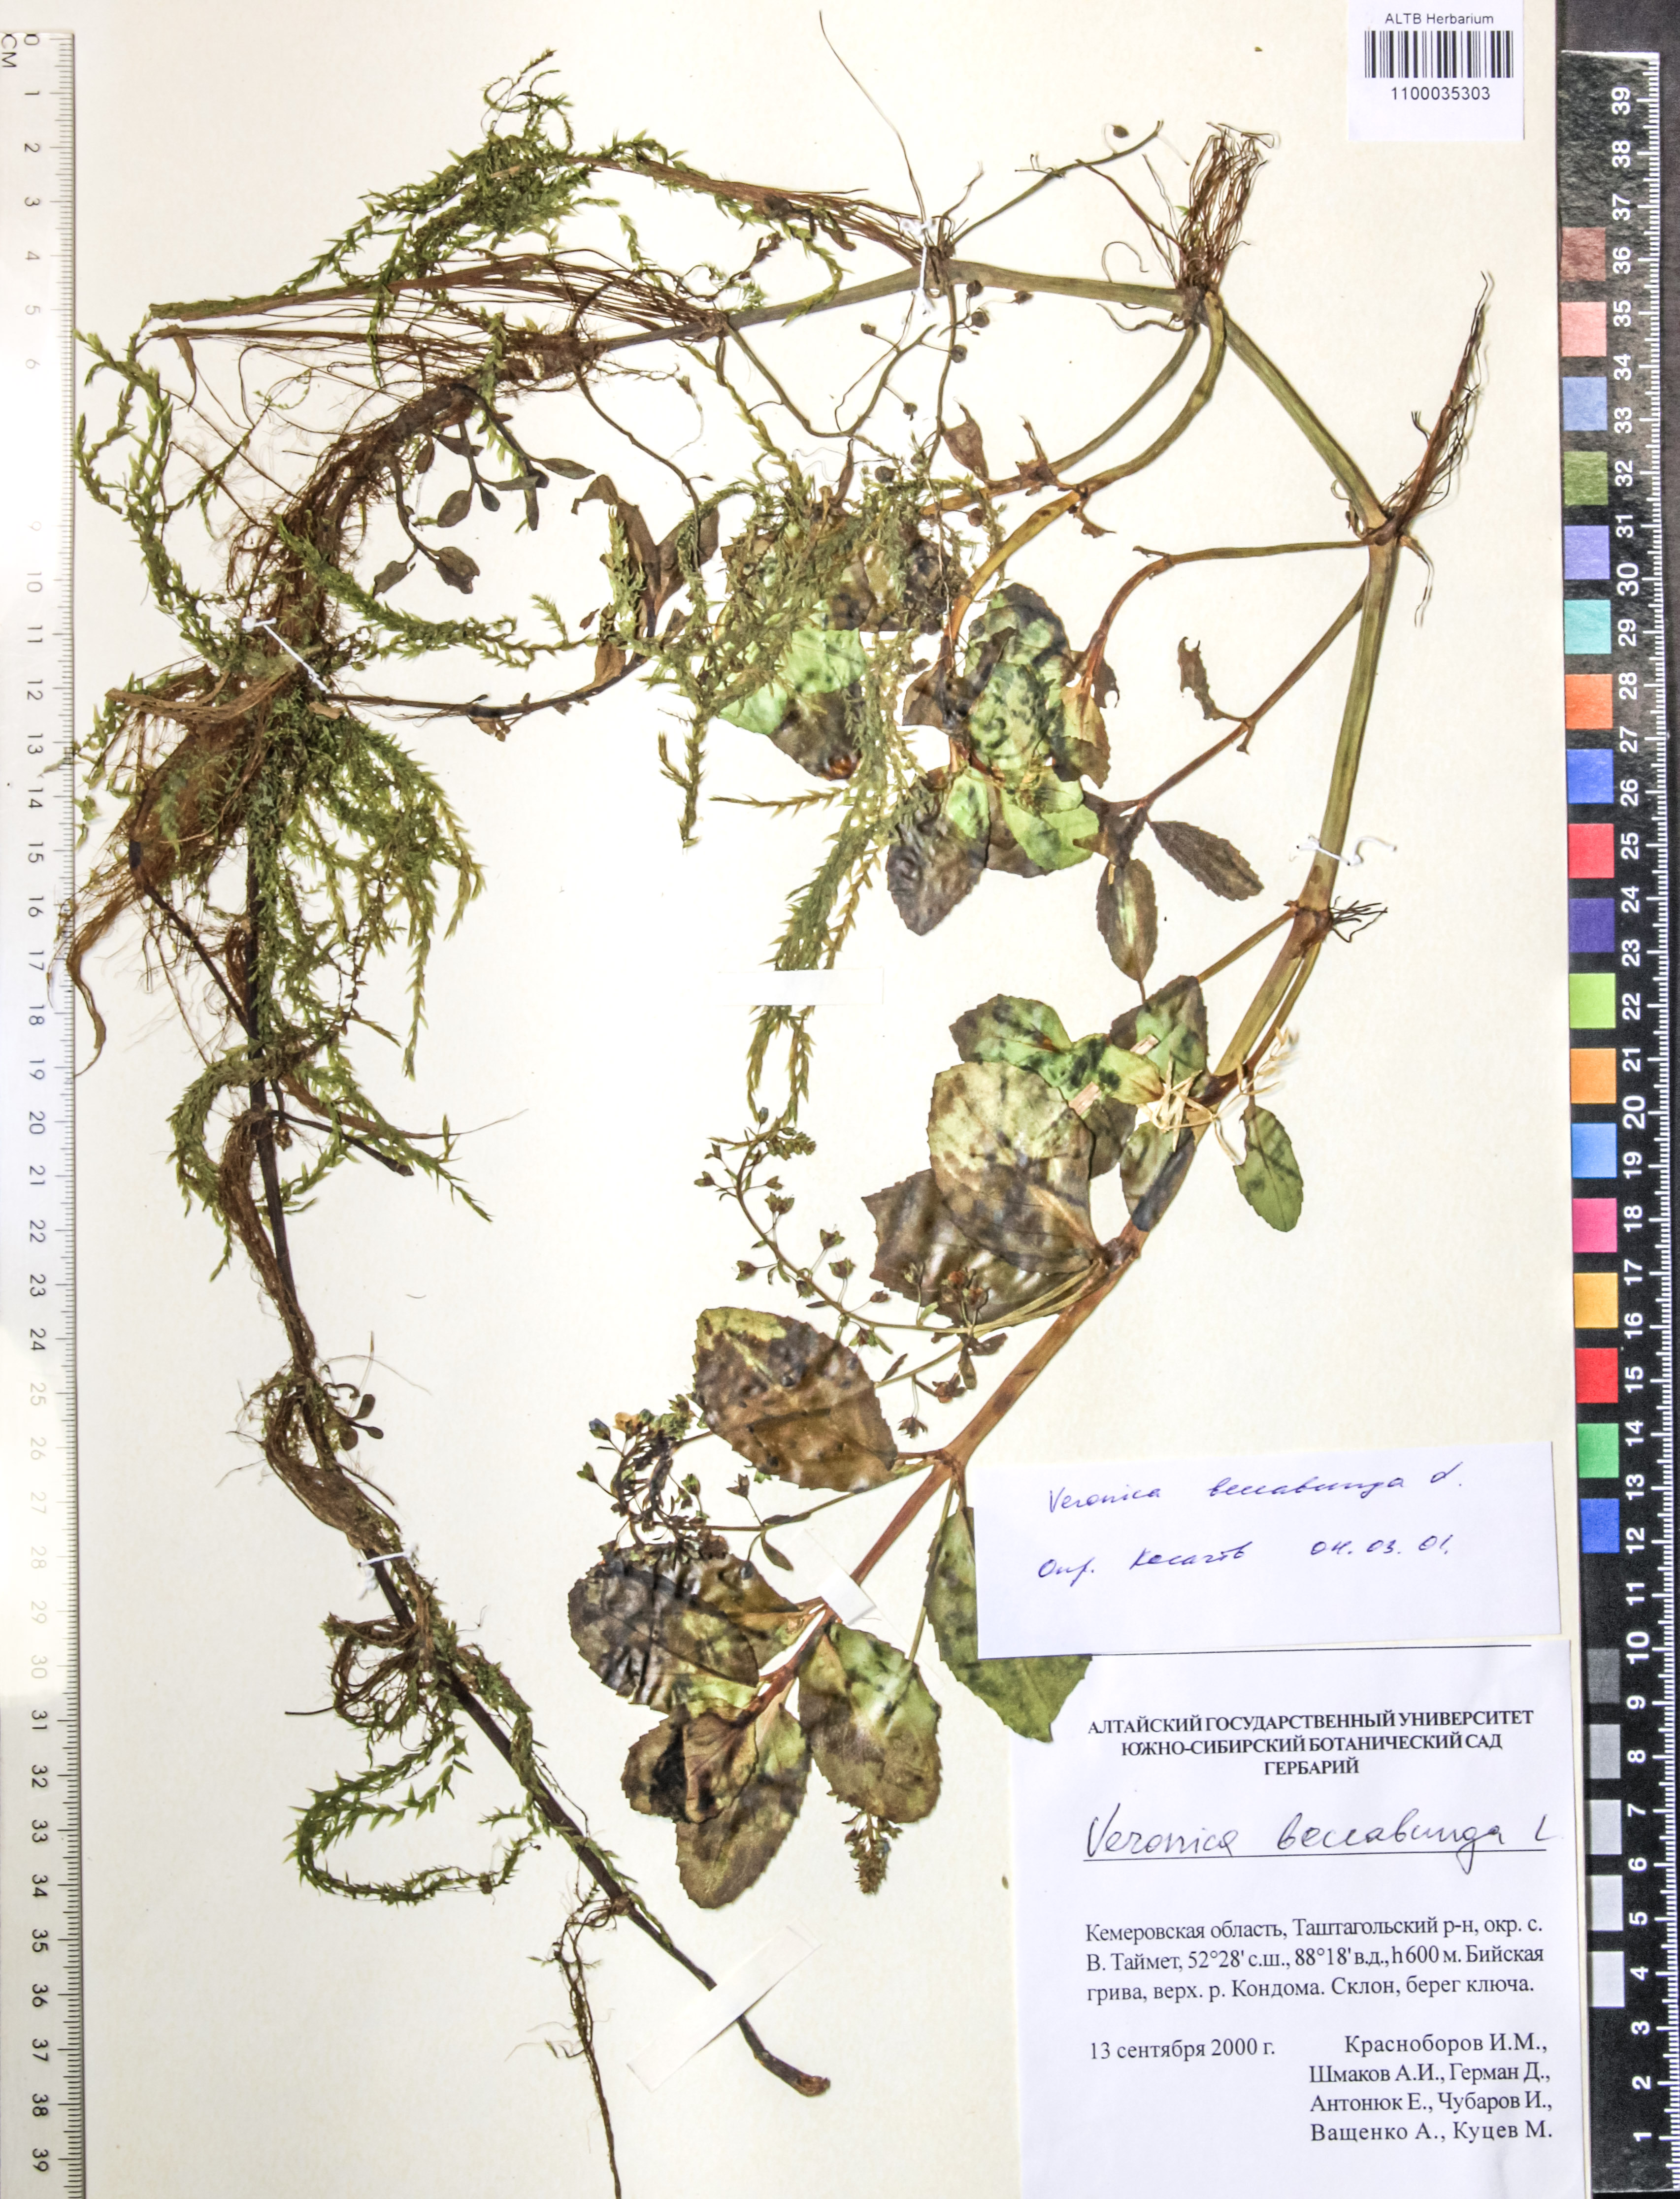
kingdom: Plantae
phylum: Tracheophyta
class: Magnoliopsida
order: Lamiales
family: Plantaginaceae
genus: Veronica
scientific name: Veronica beccabunga
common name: Brooklime
